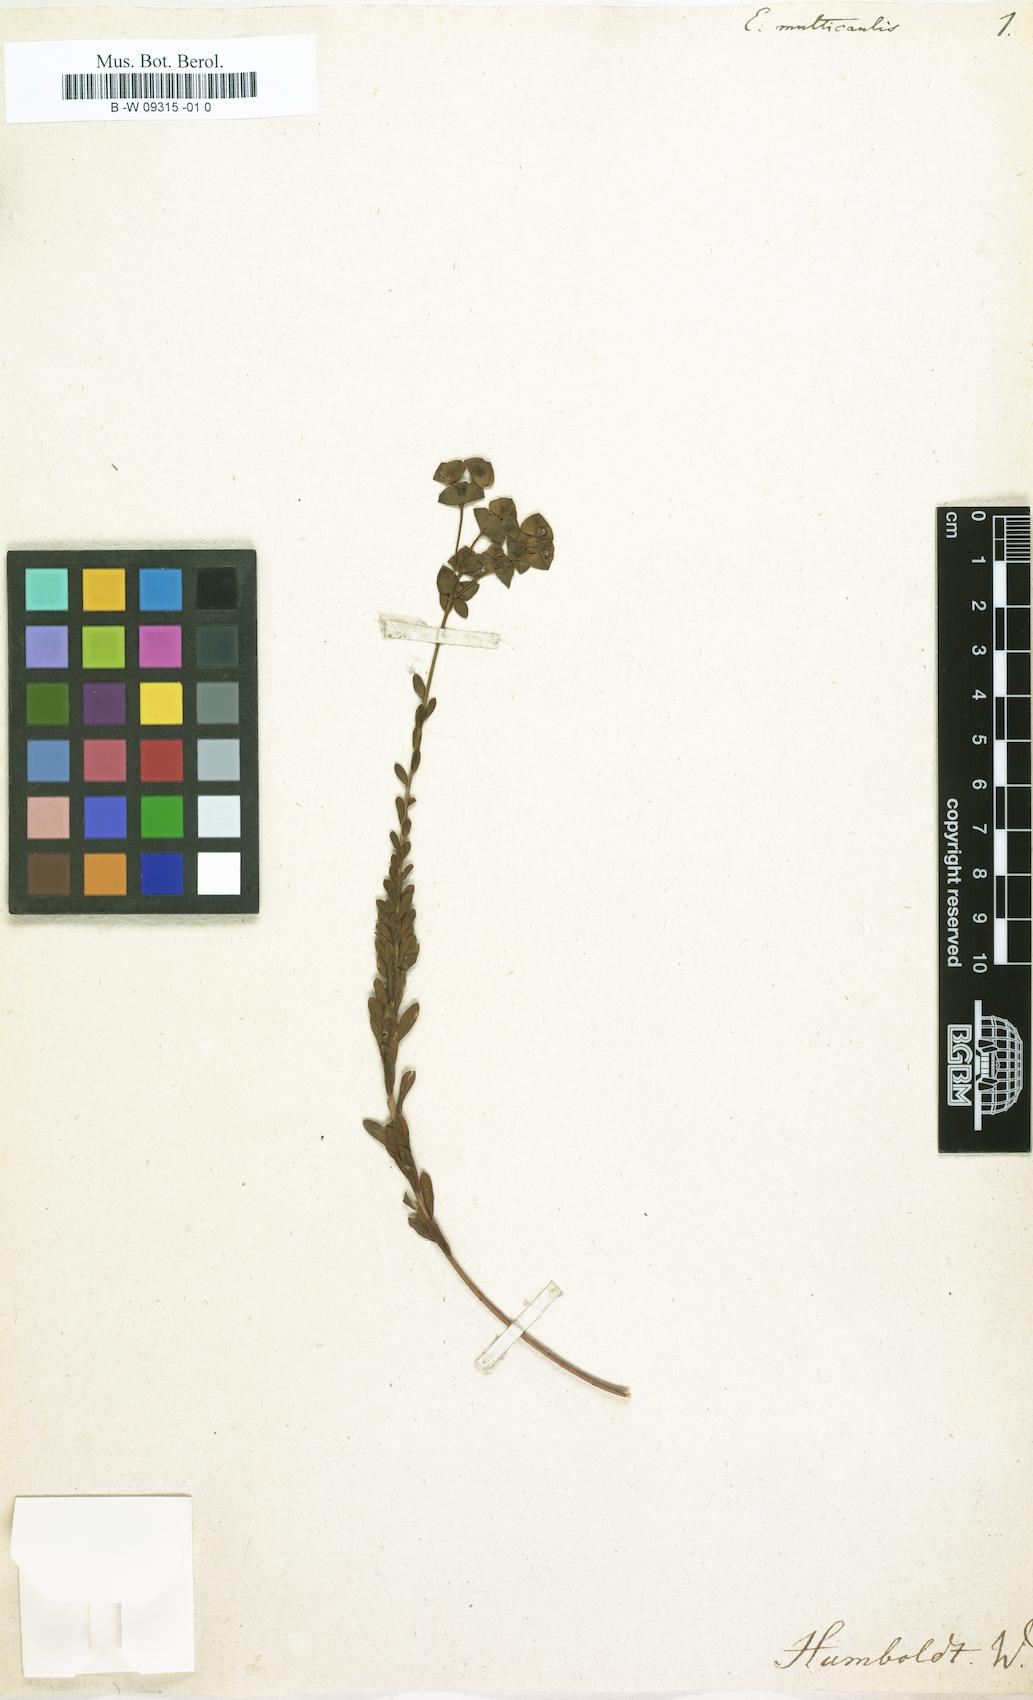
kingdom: Plantae
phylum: Tracheophyta
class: Magnoliopsida
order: Malpighiales
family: Euphorbiaceae
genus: Euphorbia
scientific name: Euphorbia
